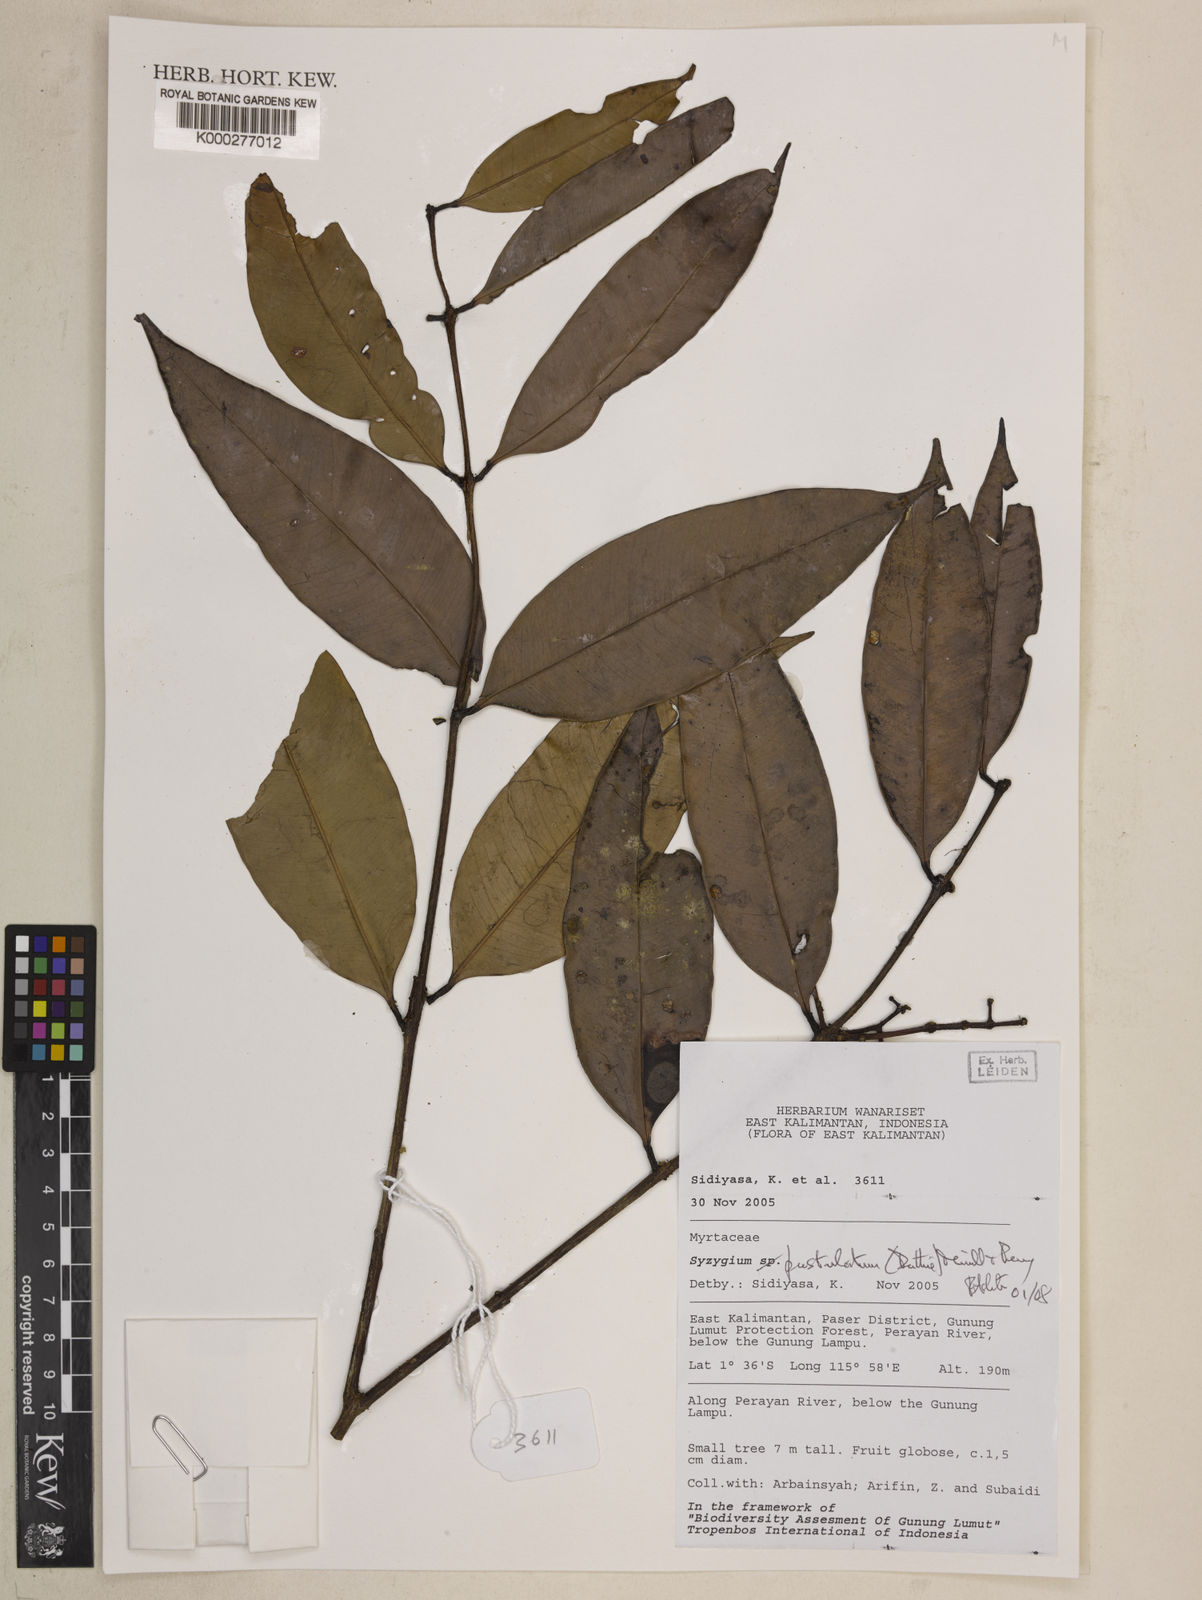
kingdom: Plantae
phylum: Tracheophyta
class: Magnoliopsida
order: Myrtales
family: Myrtaceae
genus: Syzygium
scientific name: Syzygium pustulatum
